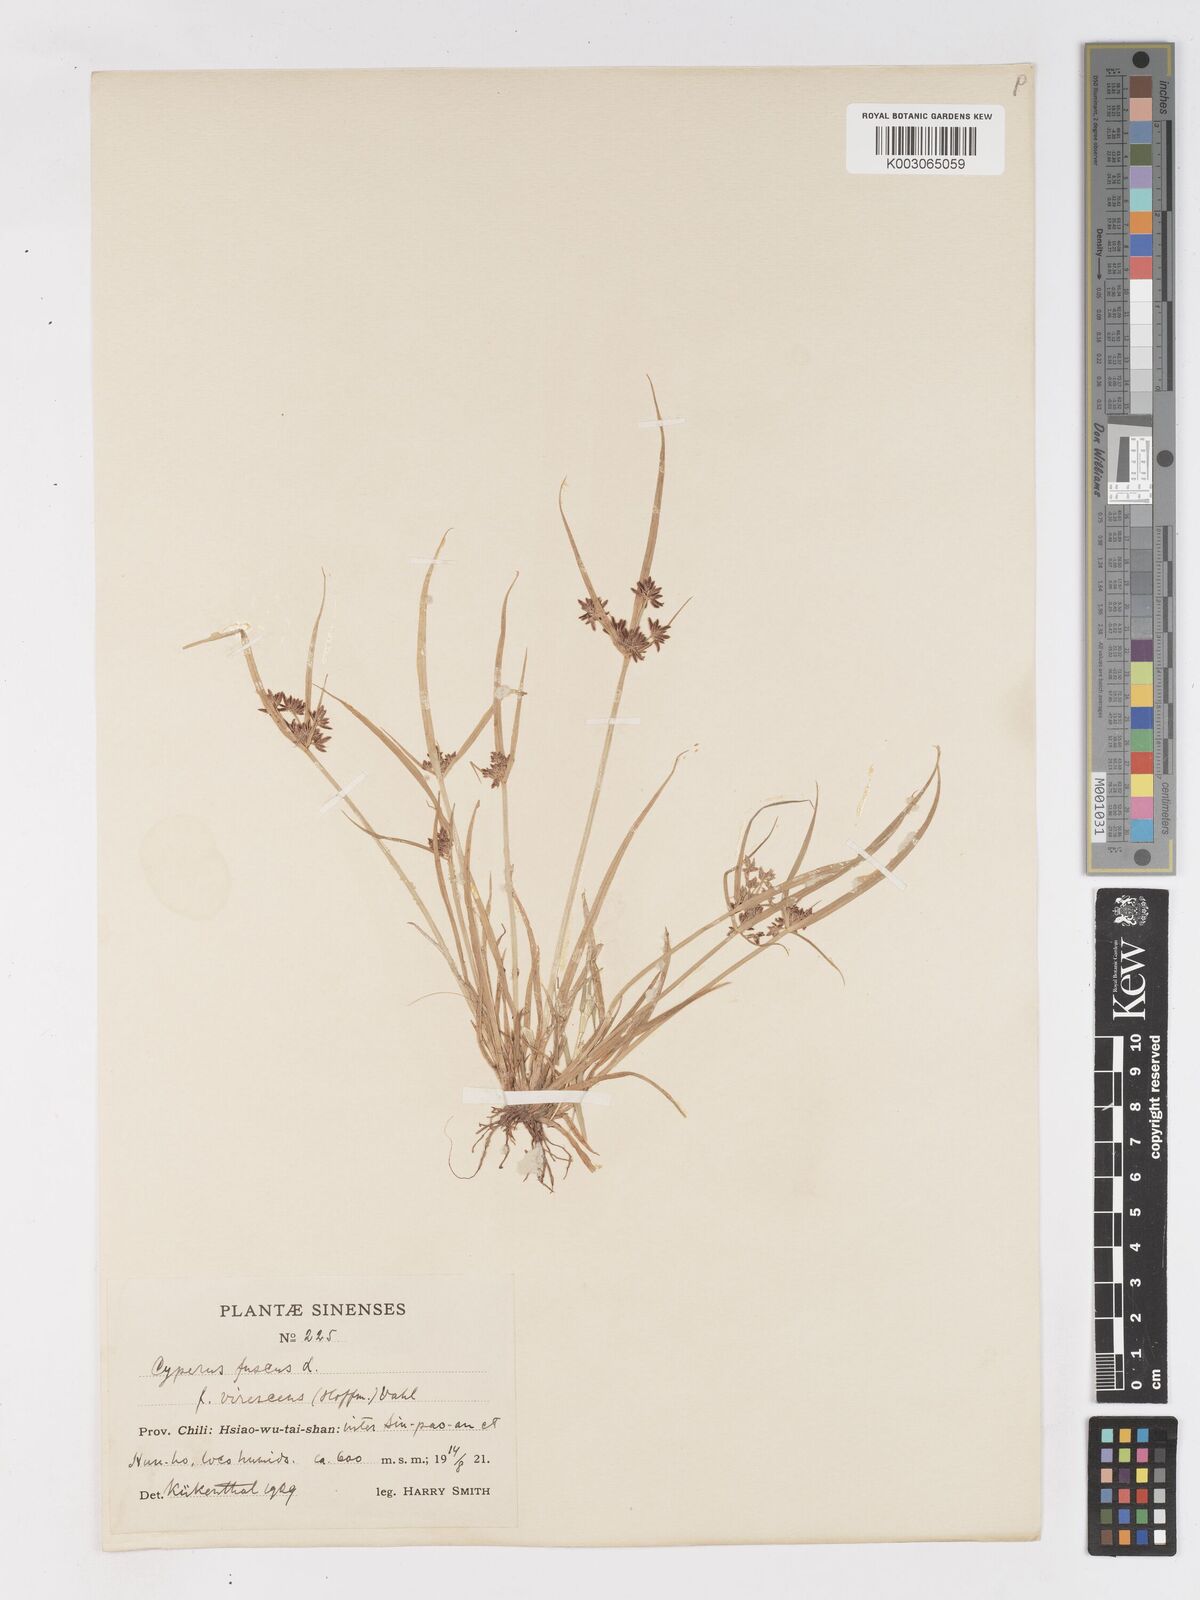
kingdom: Plantae
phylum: Tracheophyta
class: Liliopsida
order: Poales
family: Cyperaceae
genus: Cyperus
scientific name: Cyperus fuscus
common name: Brown galingale
